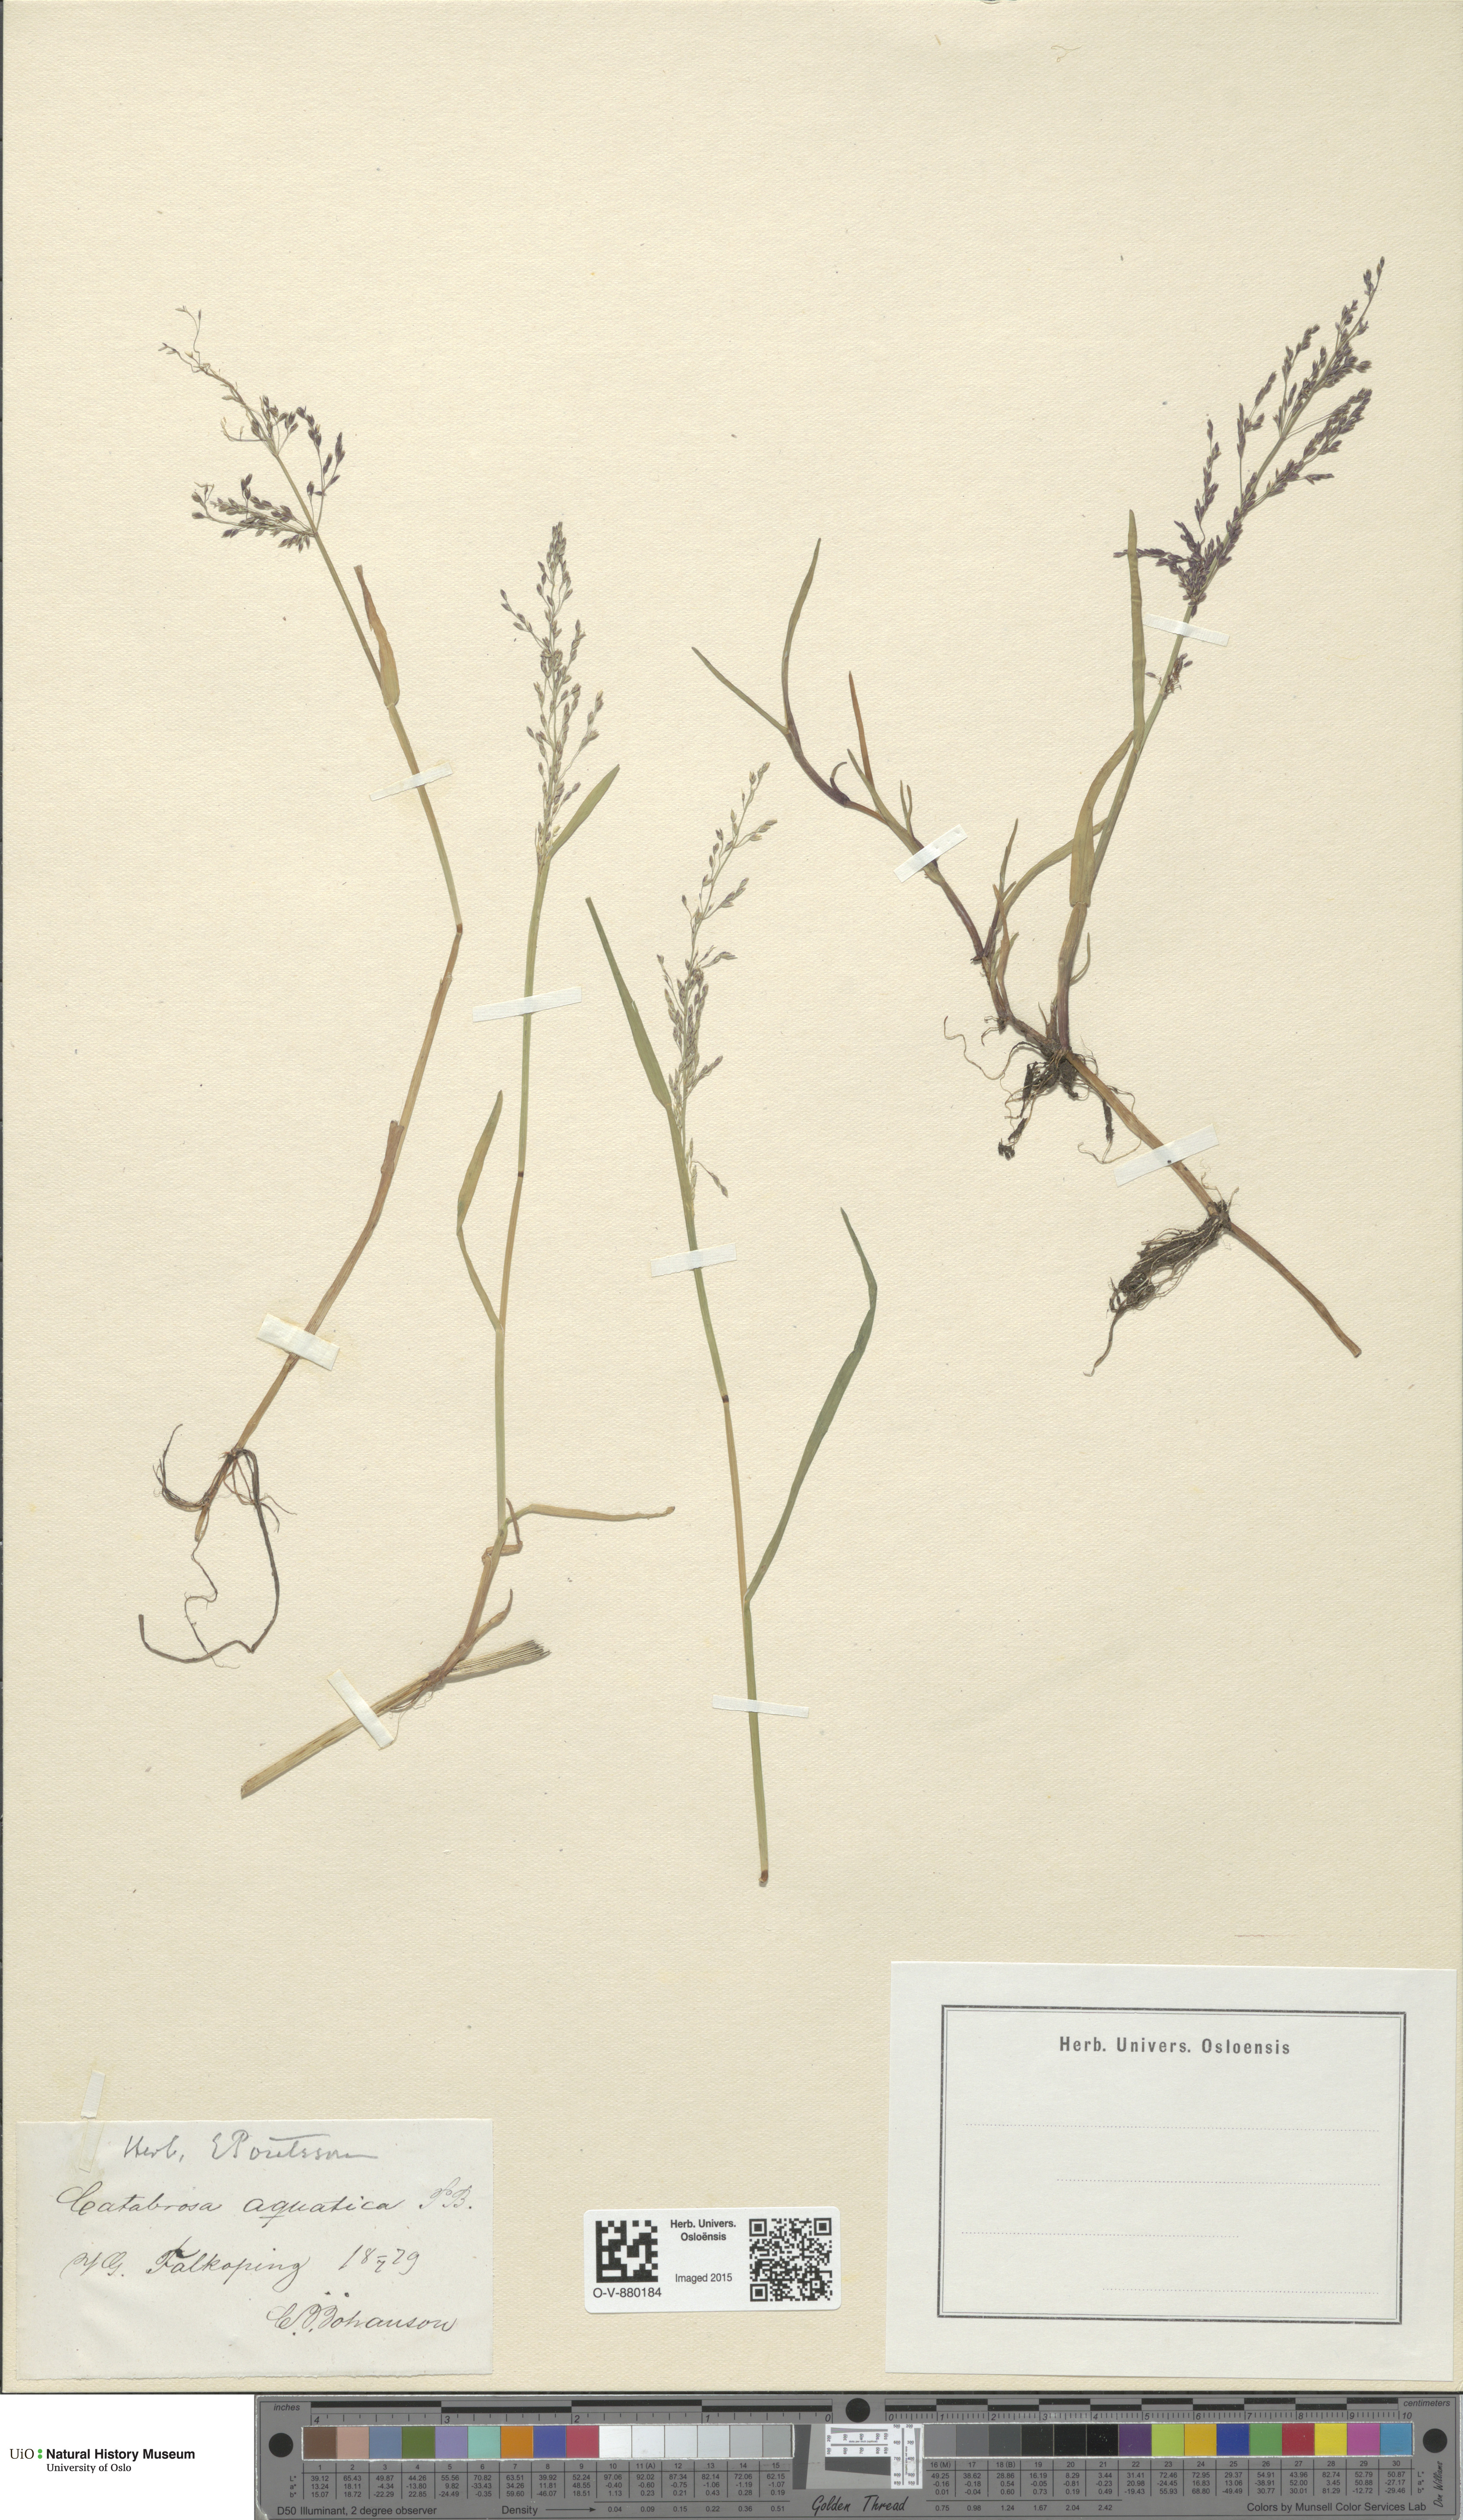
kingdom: Plantae
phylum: Tracheophyta
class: Liliopsida
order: Poales
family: Poaceae
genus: Catabrosa
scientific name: Catabrosa aquatica
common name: Whorl-grass
